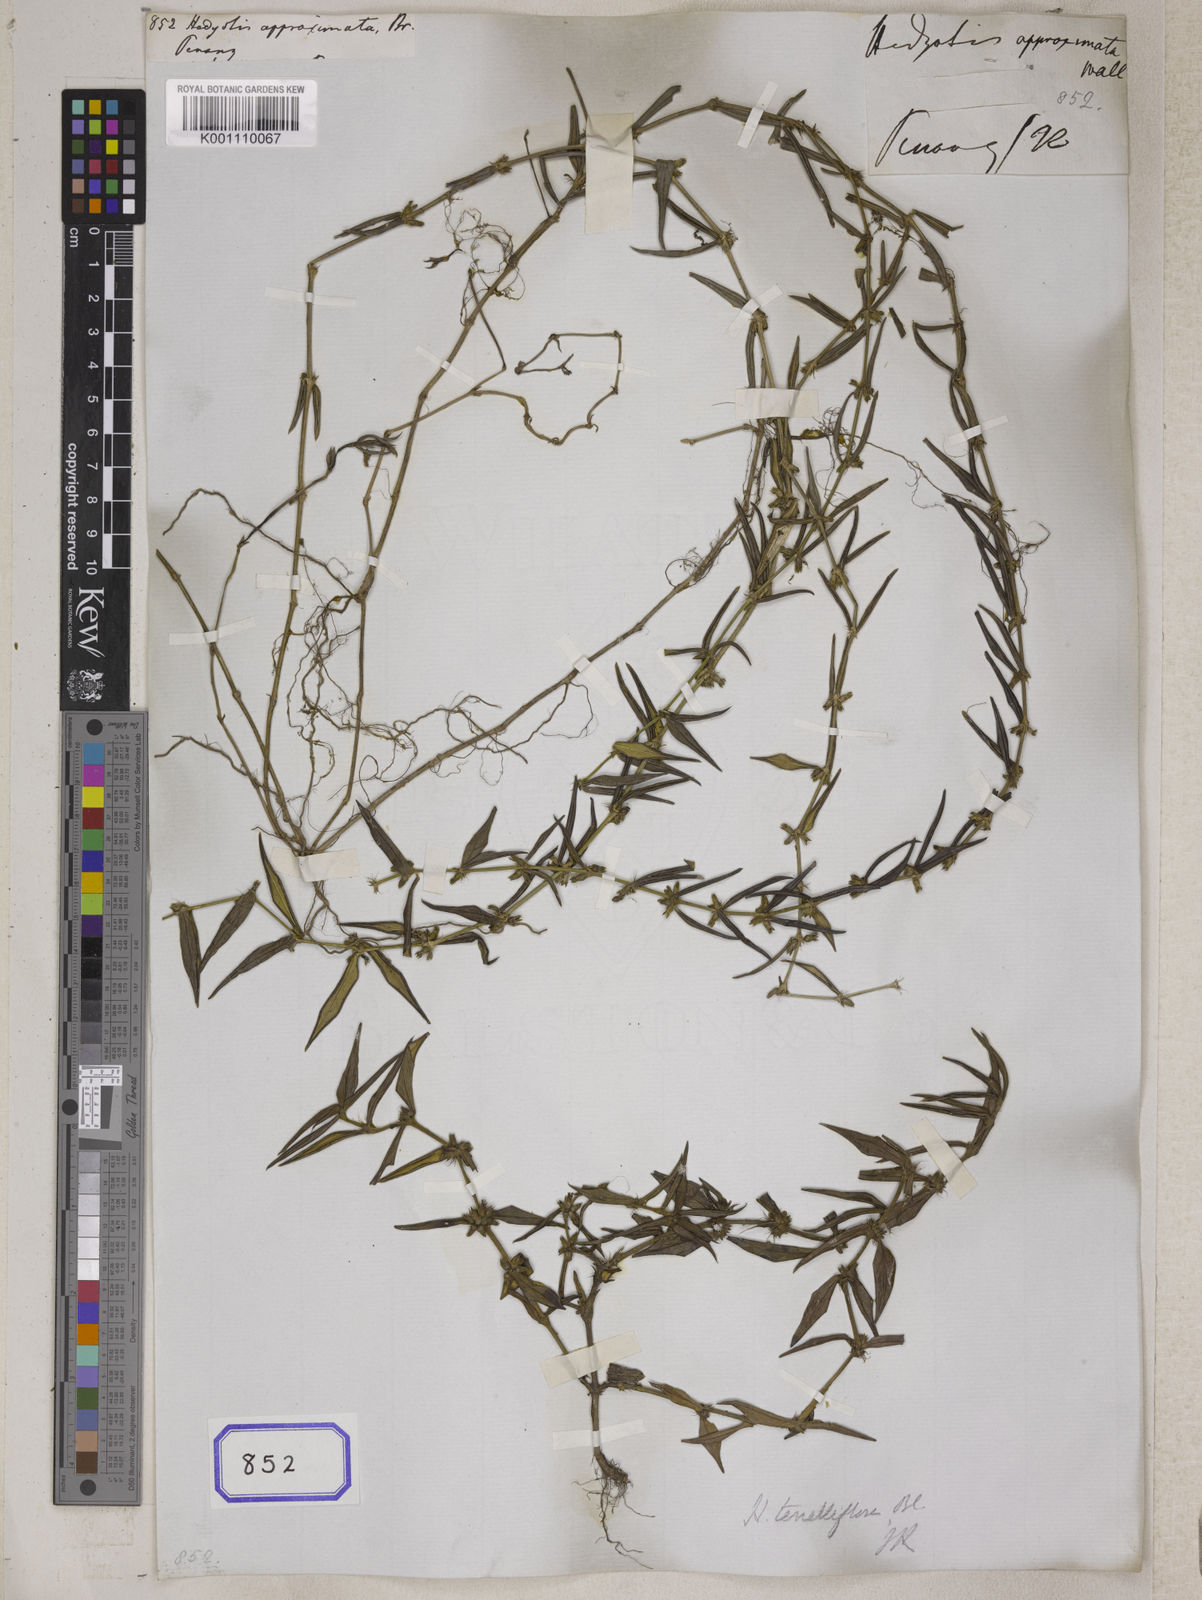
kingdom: Plantae
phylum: Tracheophyta
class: Magnoliopsida
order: Gentianales
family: Rubiaceae
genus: Hedyotis
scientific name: Hedyotis
